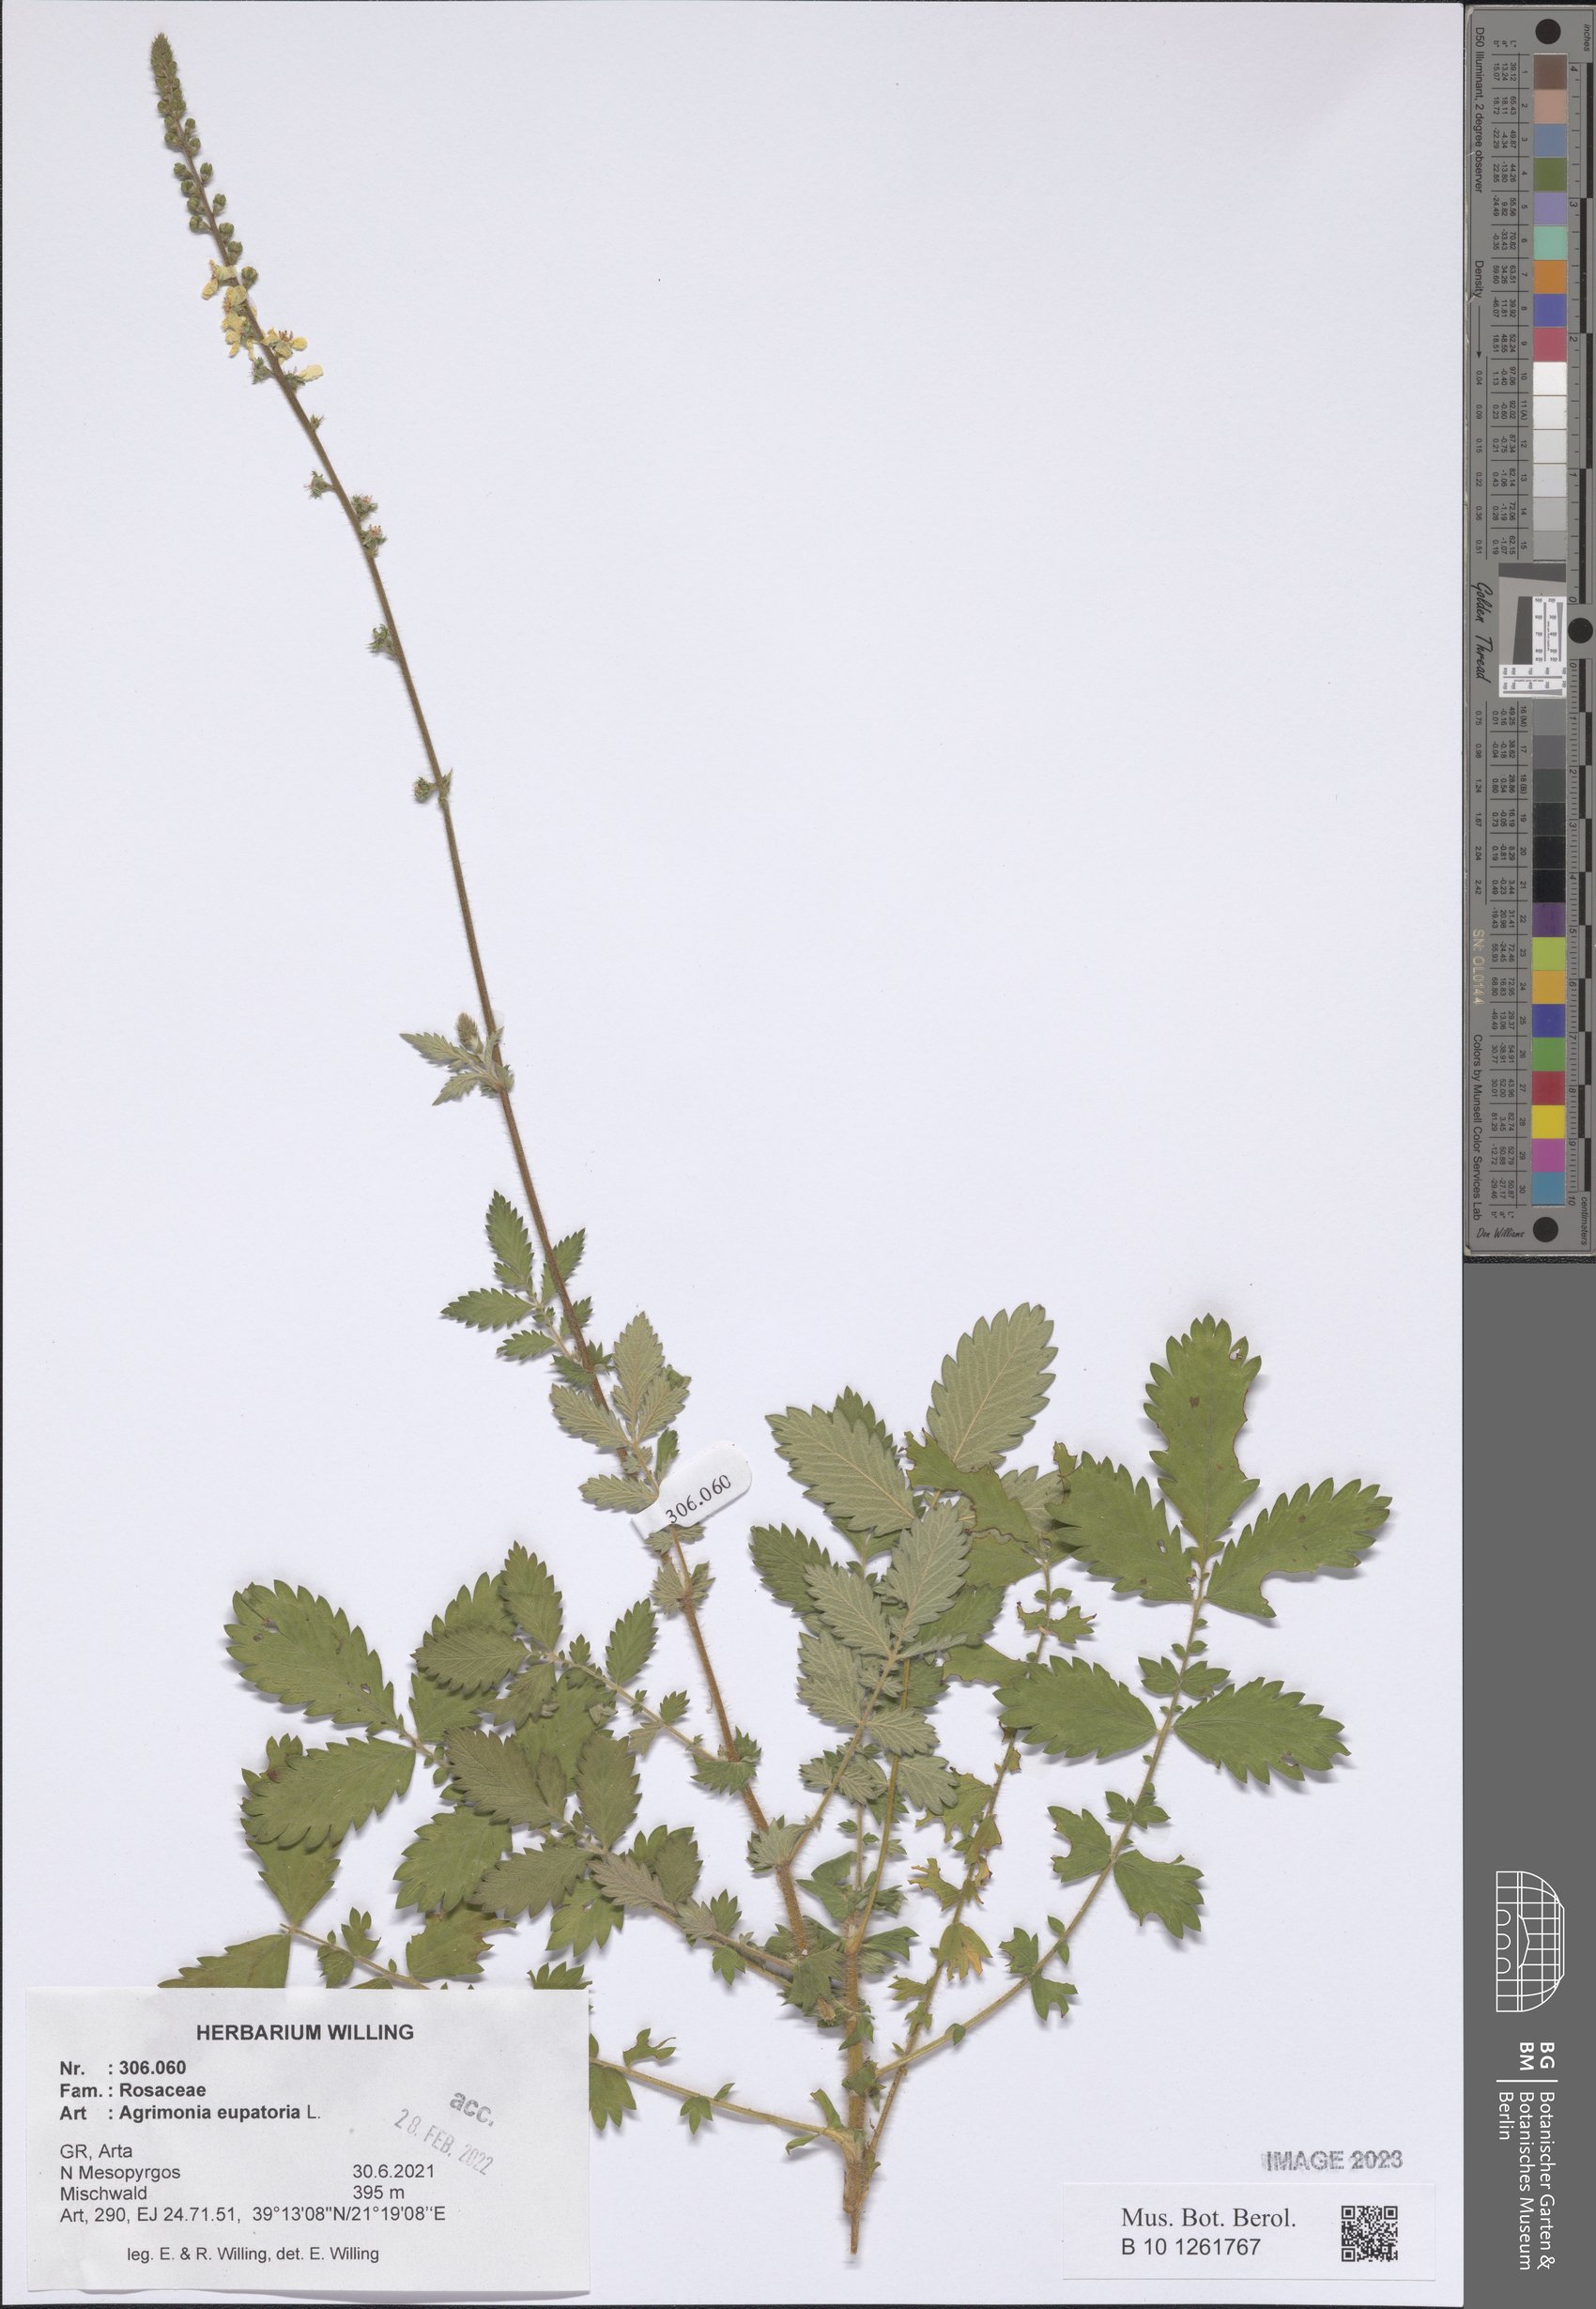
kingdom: Plantae
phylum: Tracheophyta
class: Magnoliopsida
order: Rosales
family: Rosaceae
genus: Agrimonia
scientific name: Agrimonia eupatoria
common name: Agrimony
